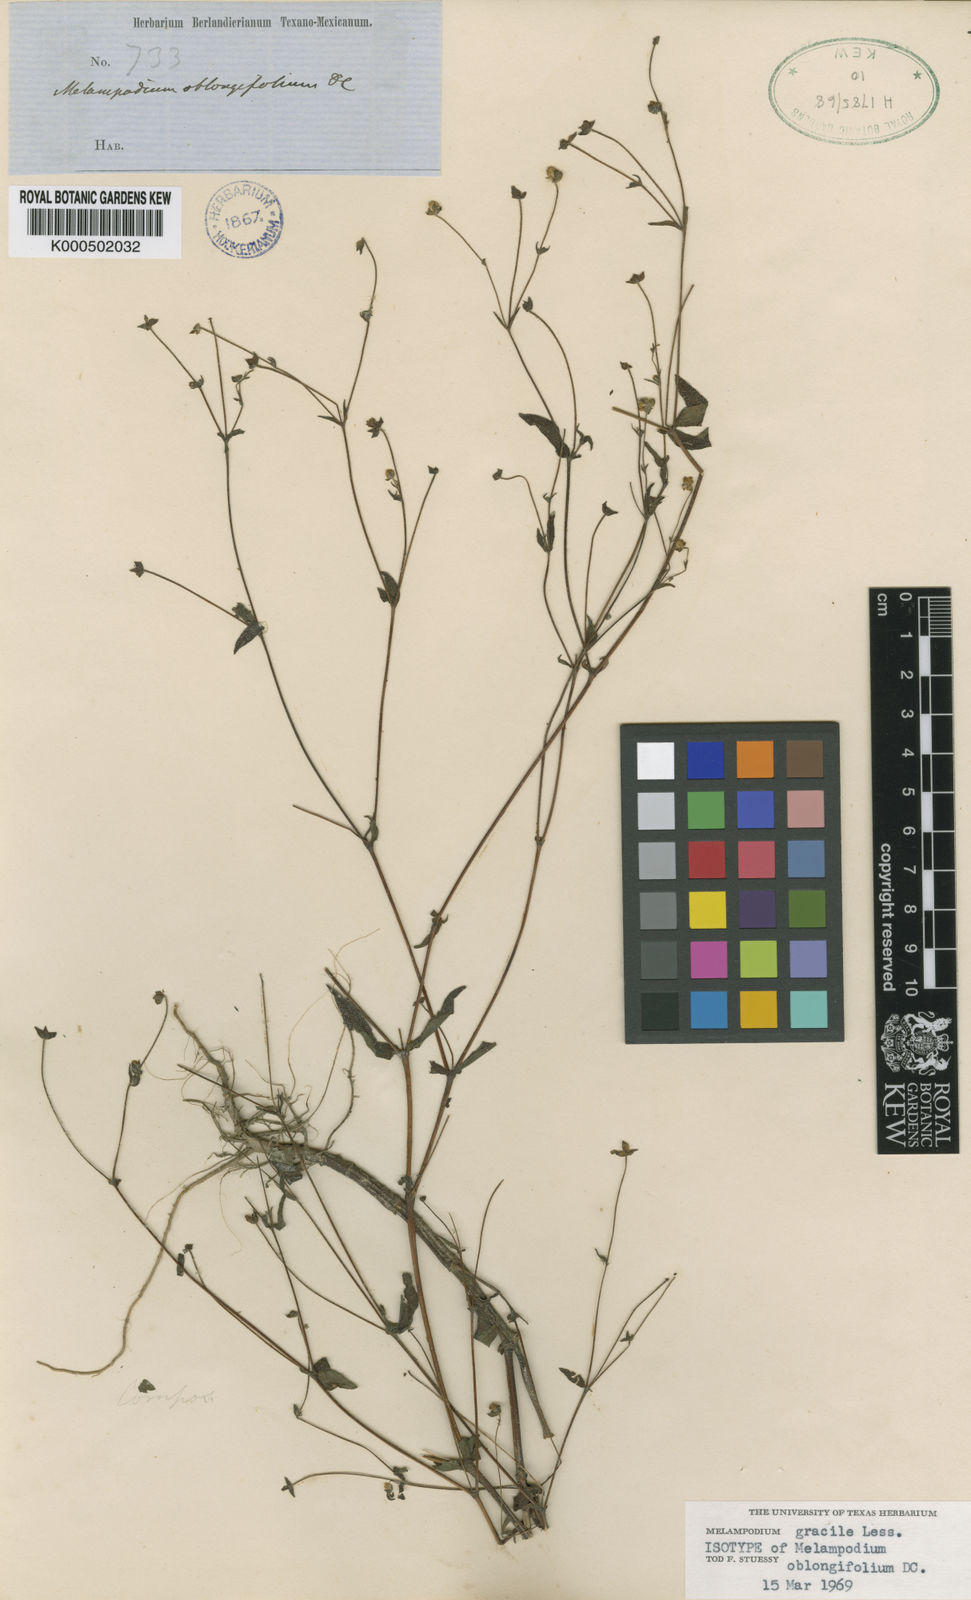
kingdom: Plantae
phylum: Tracheophyta
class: Magnoliopsida
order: Asterales
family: Asteraceae
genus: Melampodium
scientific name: Melampodium gracile
